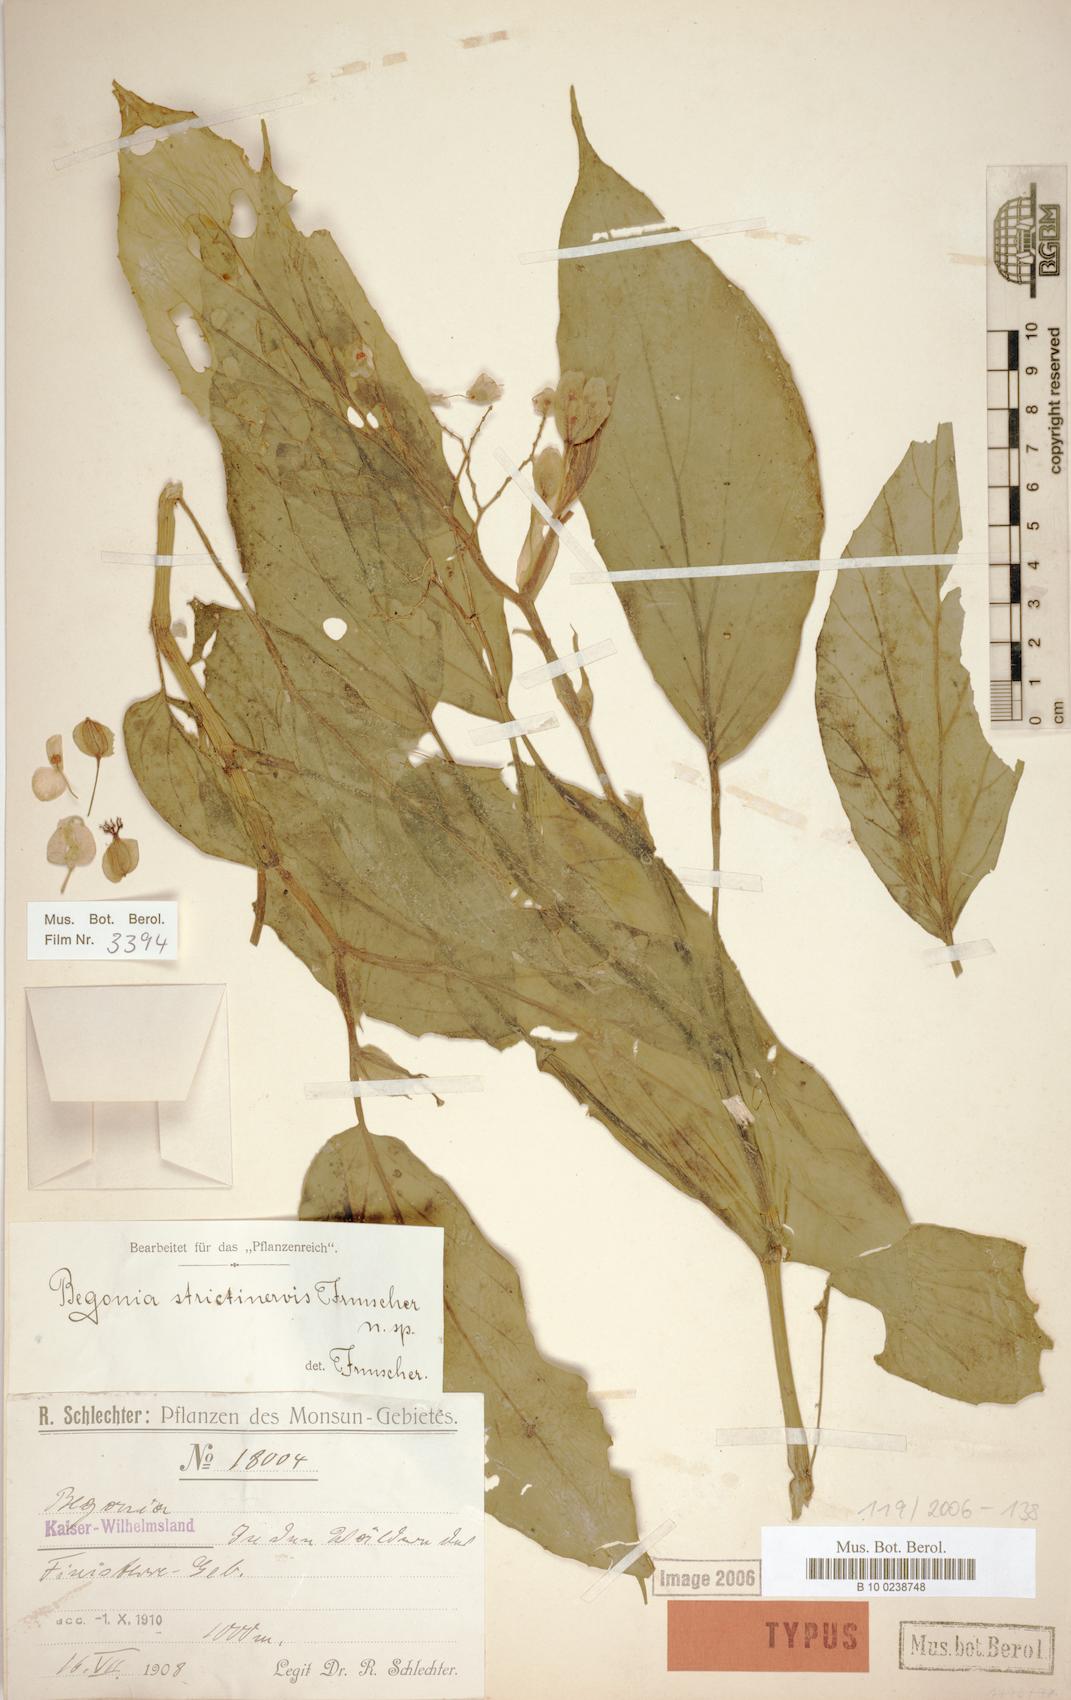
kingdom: Plantae
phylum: Tracheophyta
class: Magnoliopsida
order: Cucurbitales
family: Begoniaceae
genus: Begonia
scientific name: Begonia strictinervis
